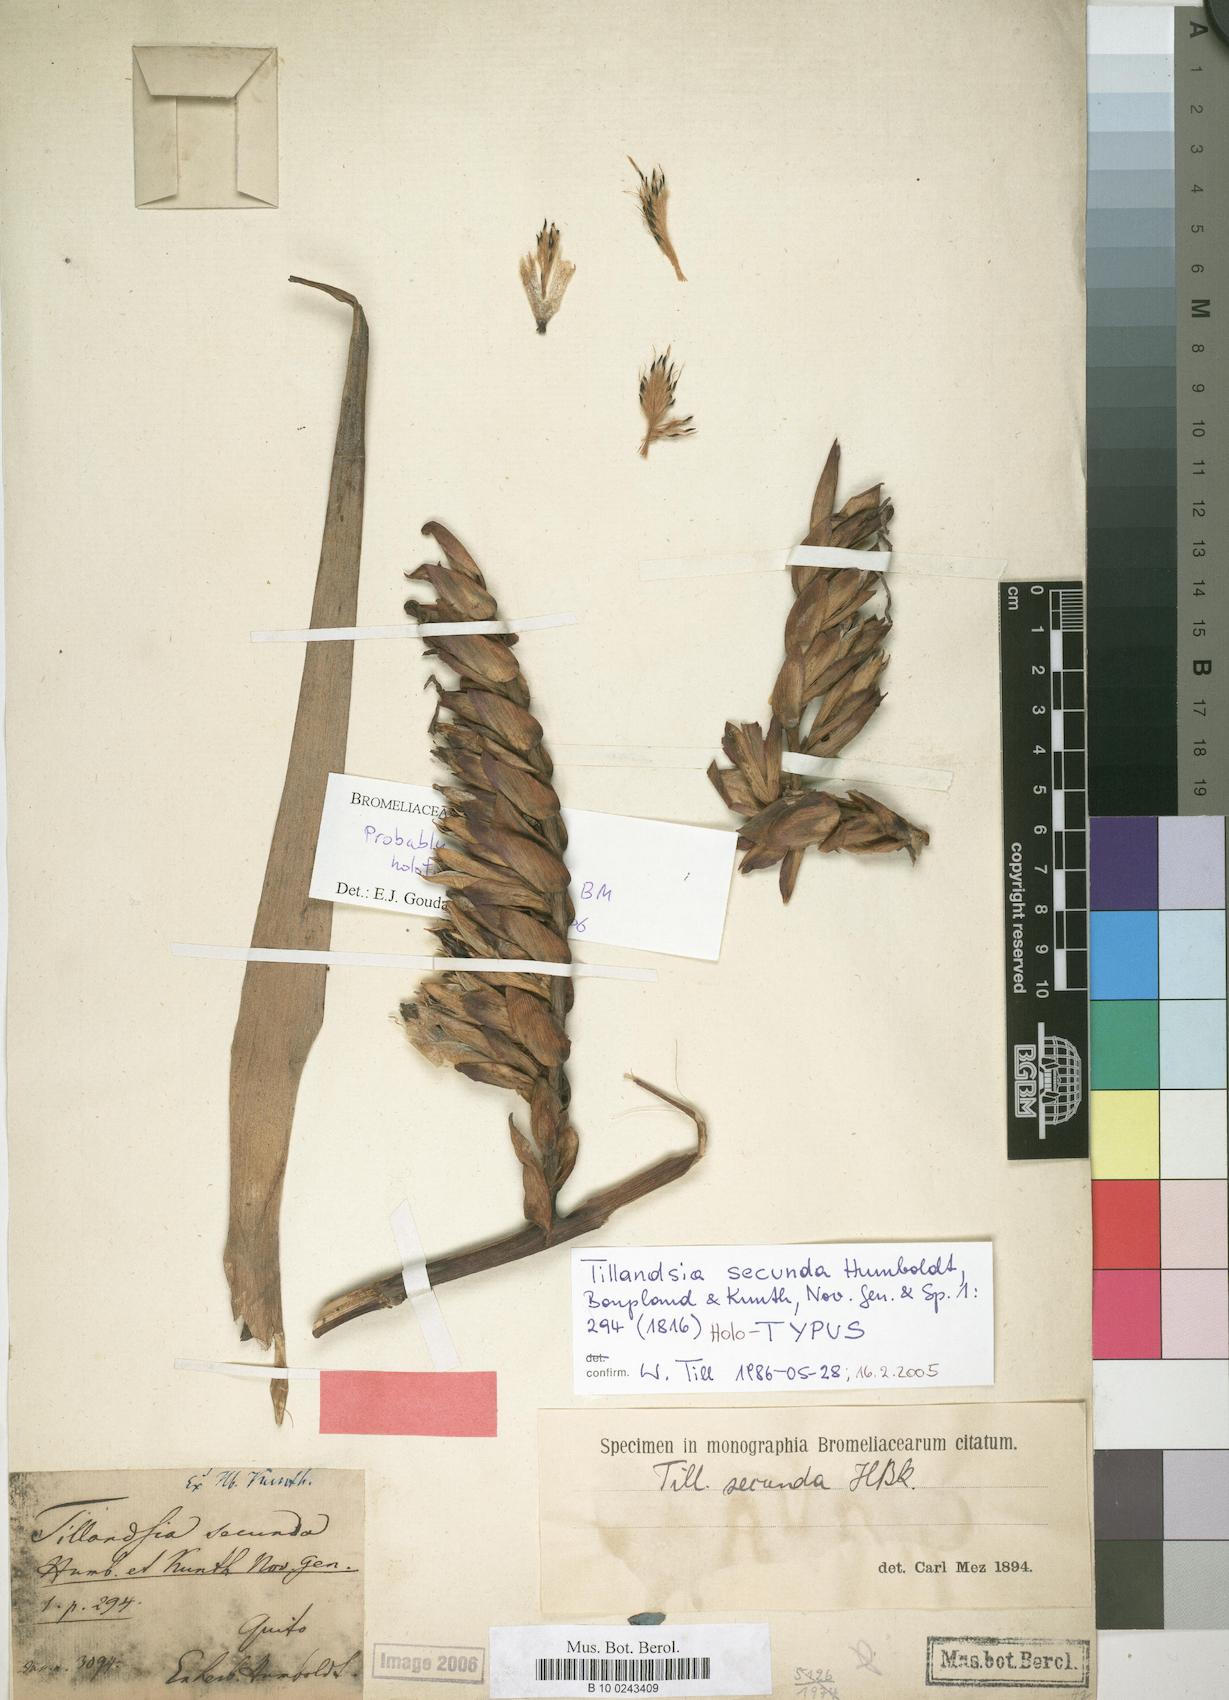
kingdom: Plantae
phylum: Tracheophyta
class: Liliopsida
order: Poales
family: Bromeliaceae
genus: Tillandsia
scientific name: Tillandsia secunda
